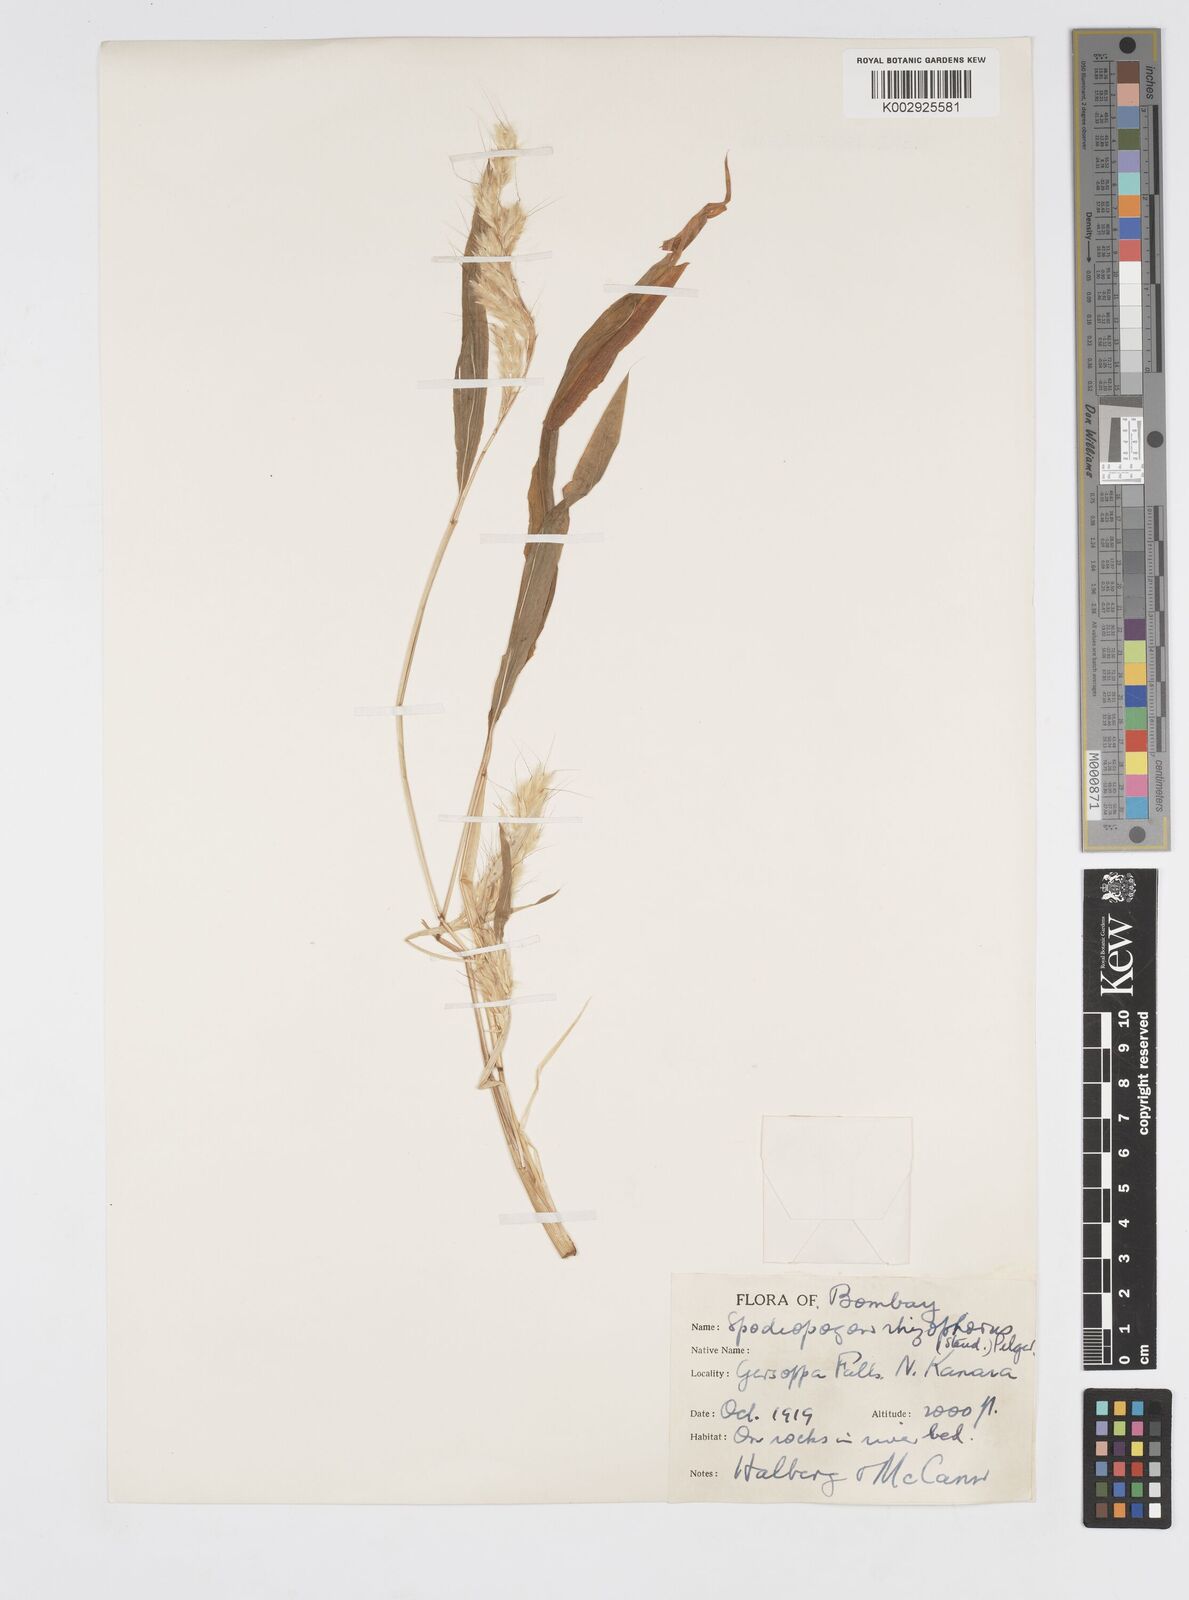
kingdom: Plantae
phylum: Tracheophyta
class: Liliopsida
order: Poales
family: Poaceae
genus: Spodiopogon
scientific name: Spodiopogon rhizophorus
